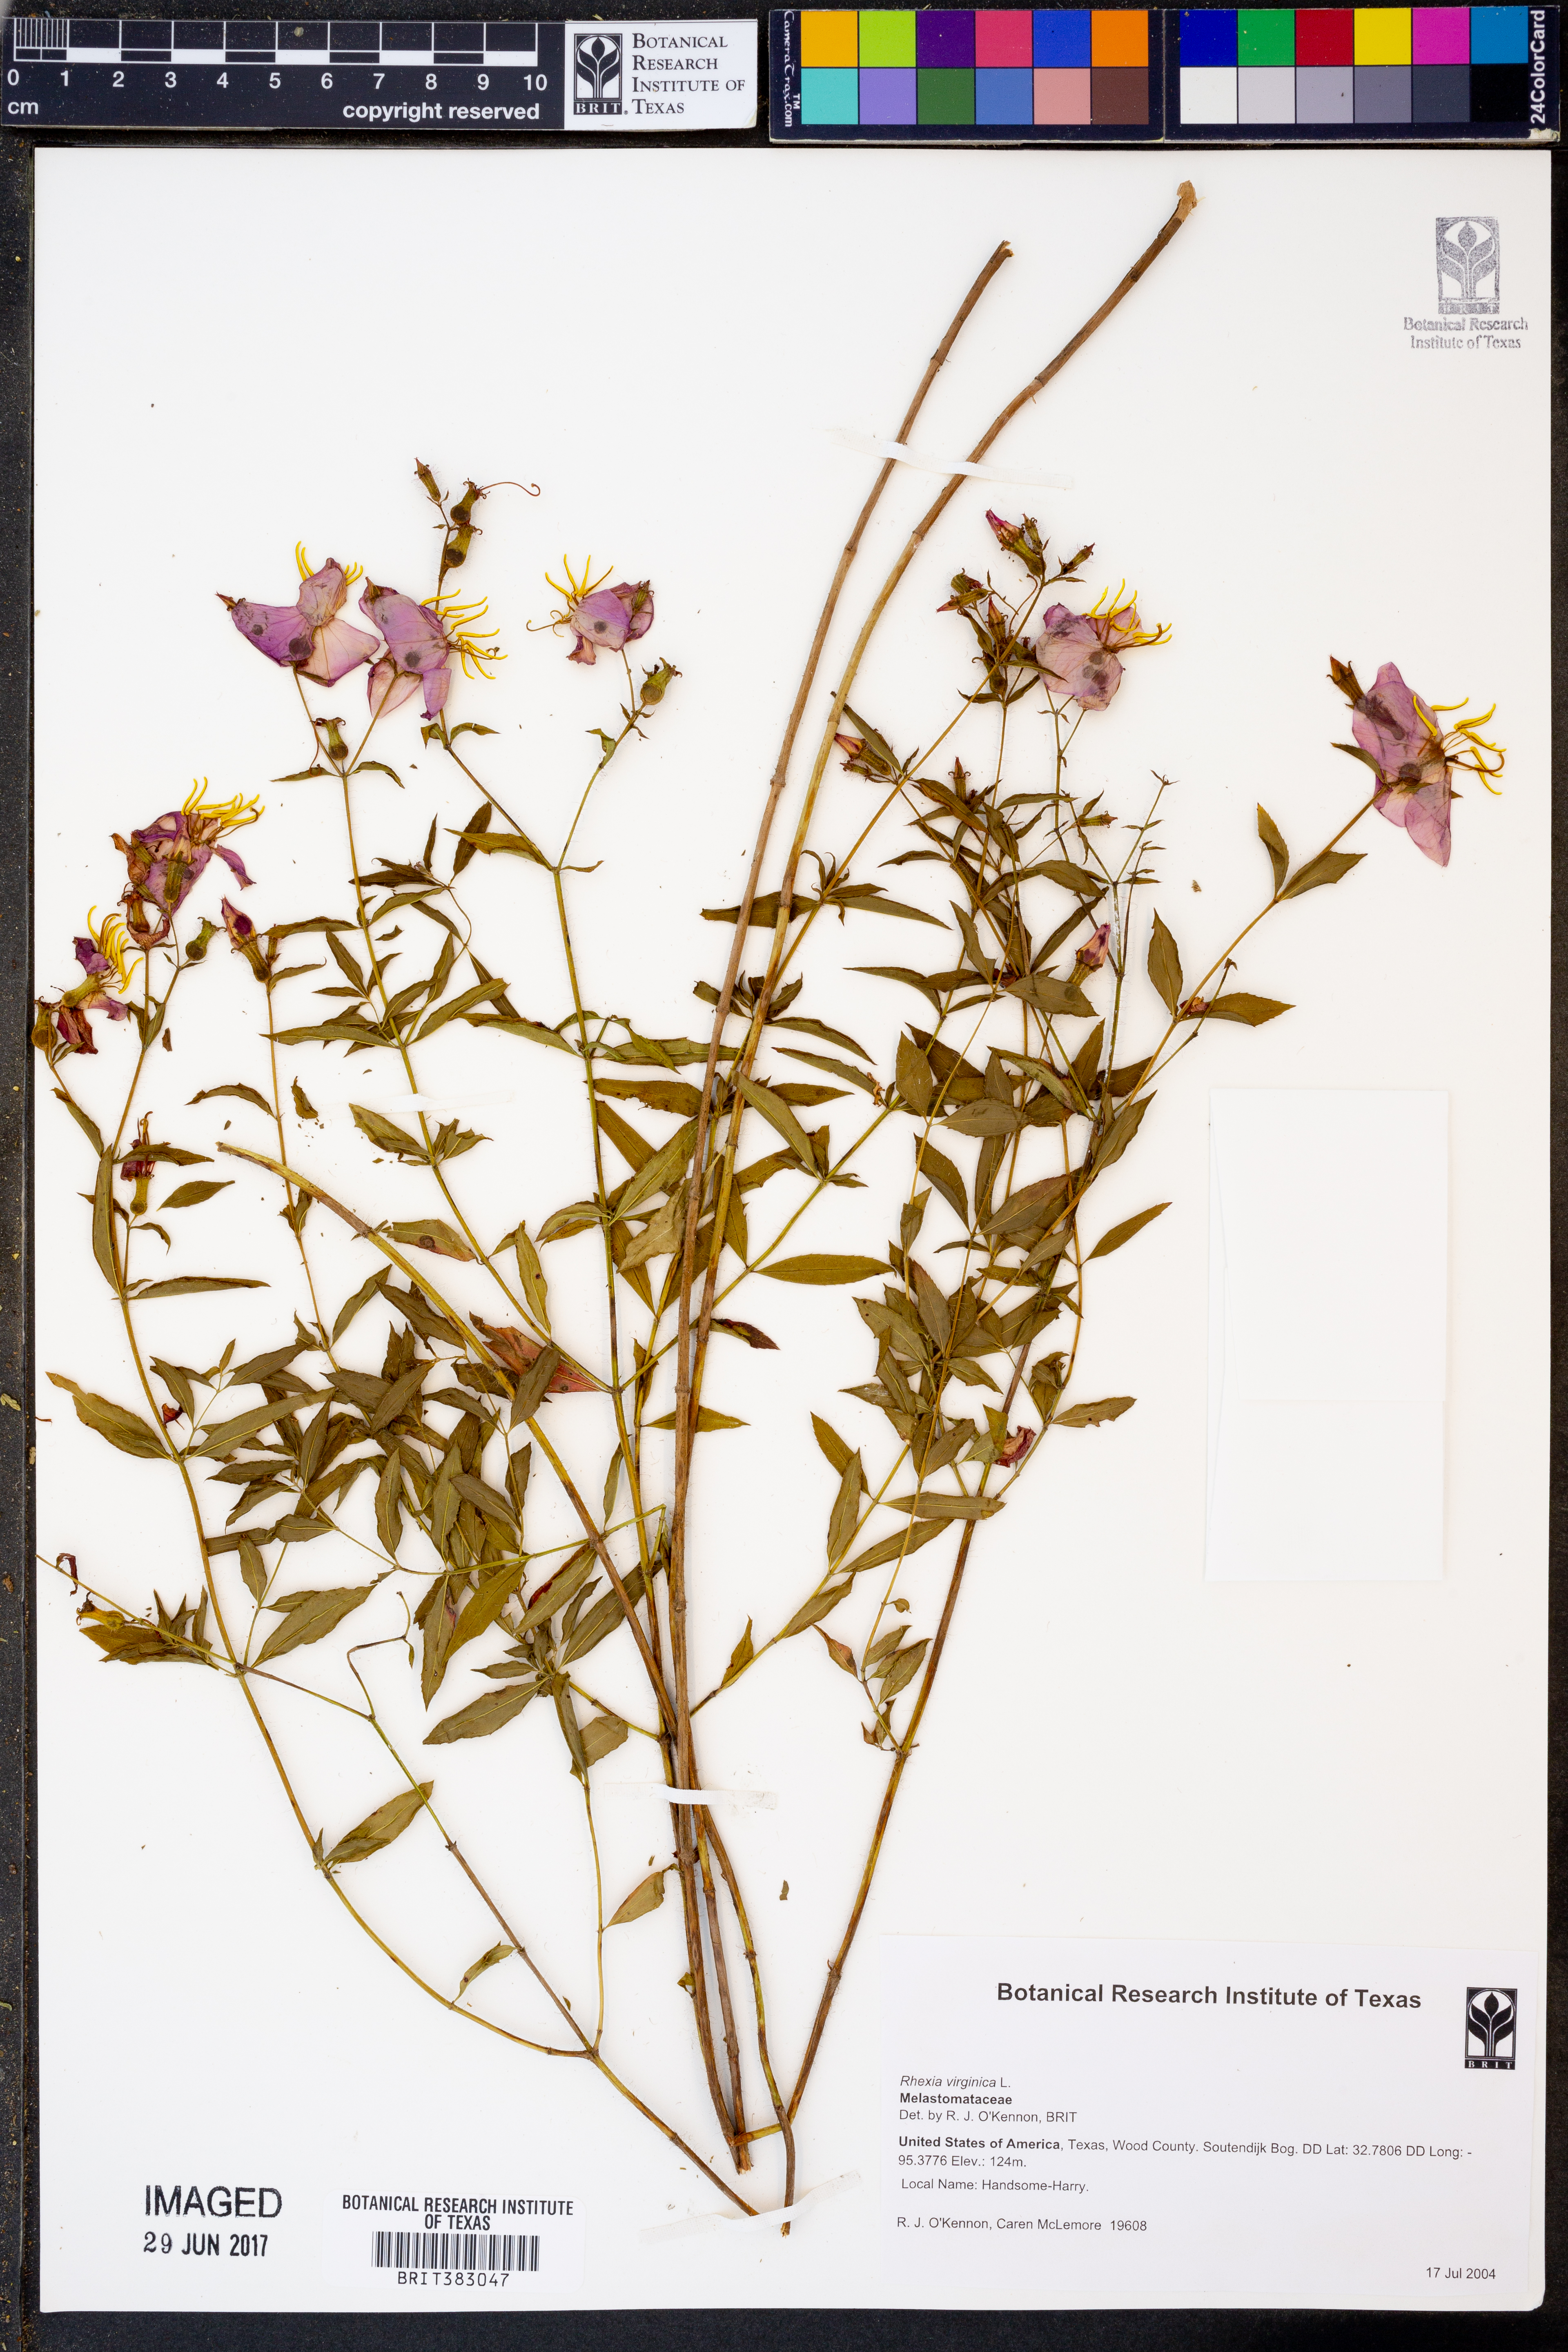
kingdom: Plantae
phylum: Tracheophyta
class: Magnoliopsida
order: Myrtales
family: Melastomataceae
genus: Rhexia
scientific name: Rhexia virginica
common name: Common meadow beauty
